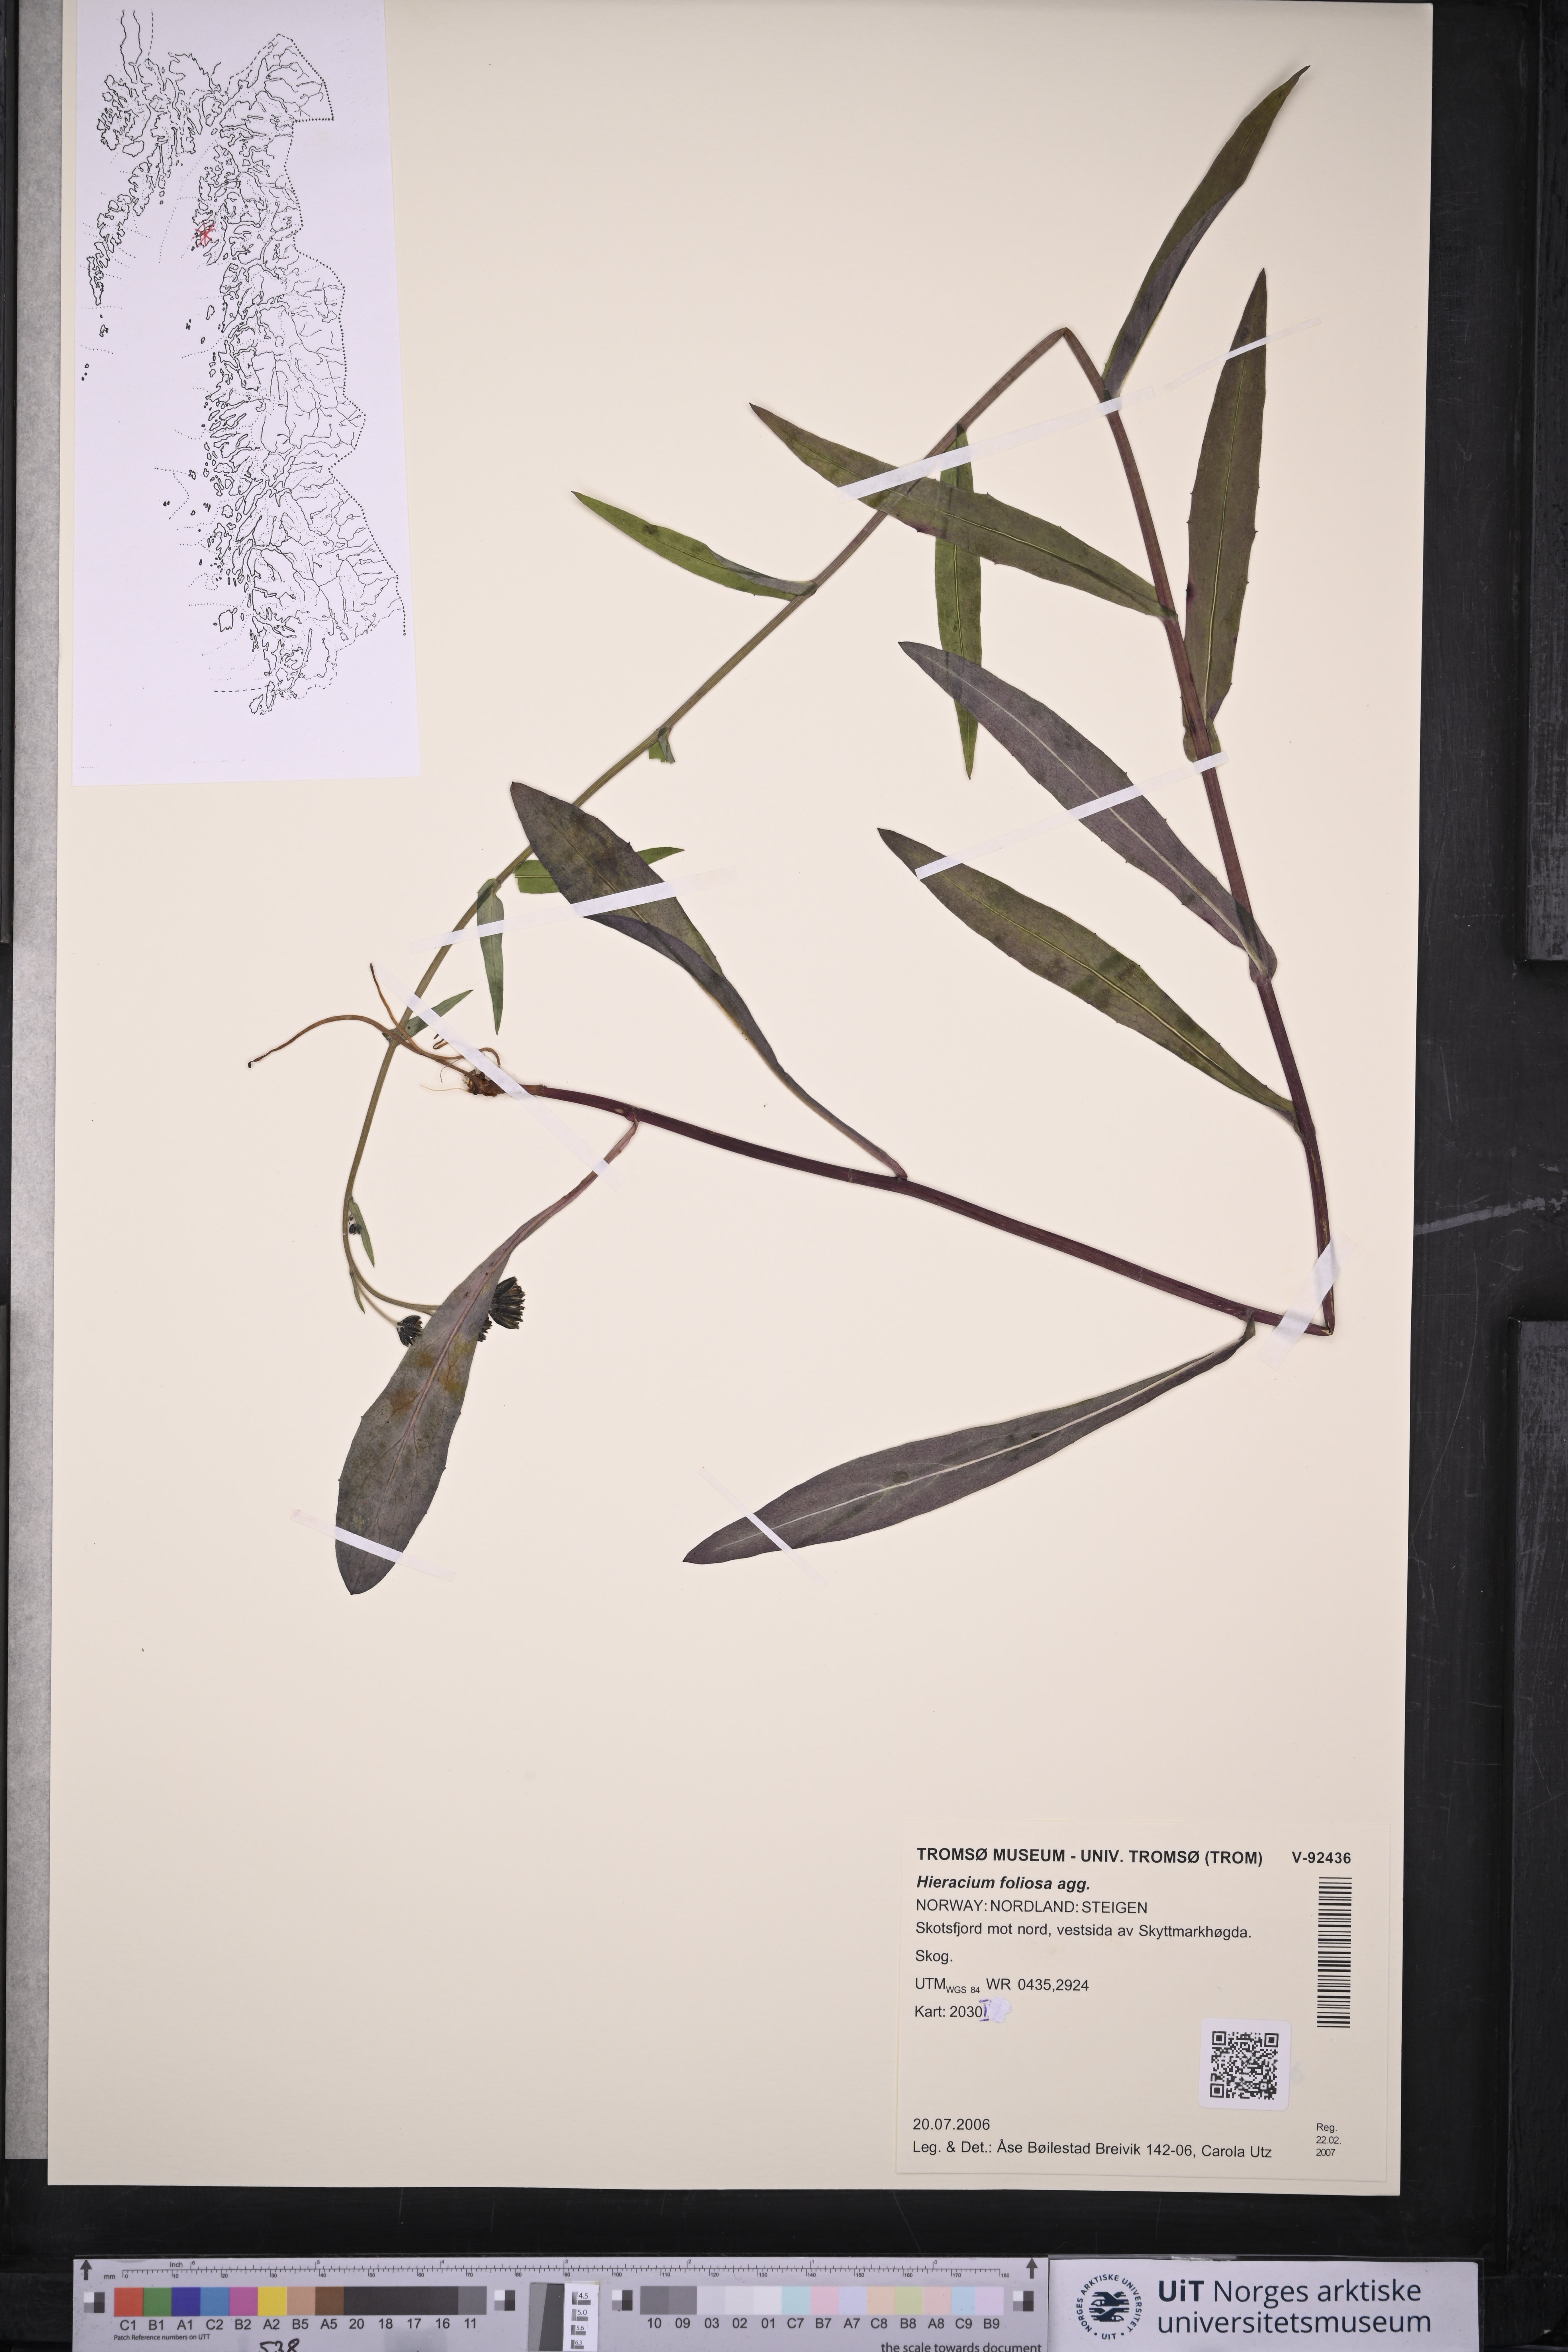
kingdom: Plantae
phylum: Tracheophyta
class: Magnoliopsida
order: Asterales
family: Asteraceae
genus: Hieracium
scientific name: Hieracium
